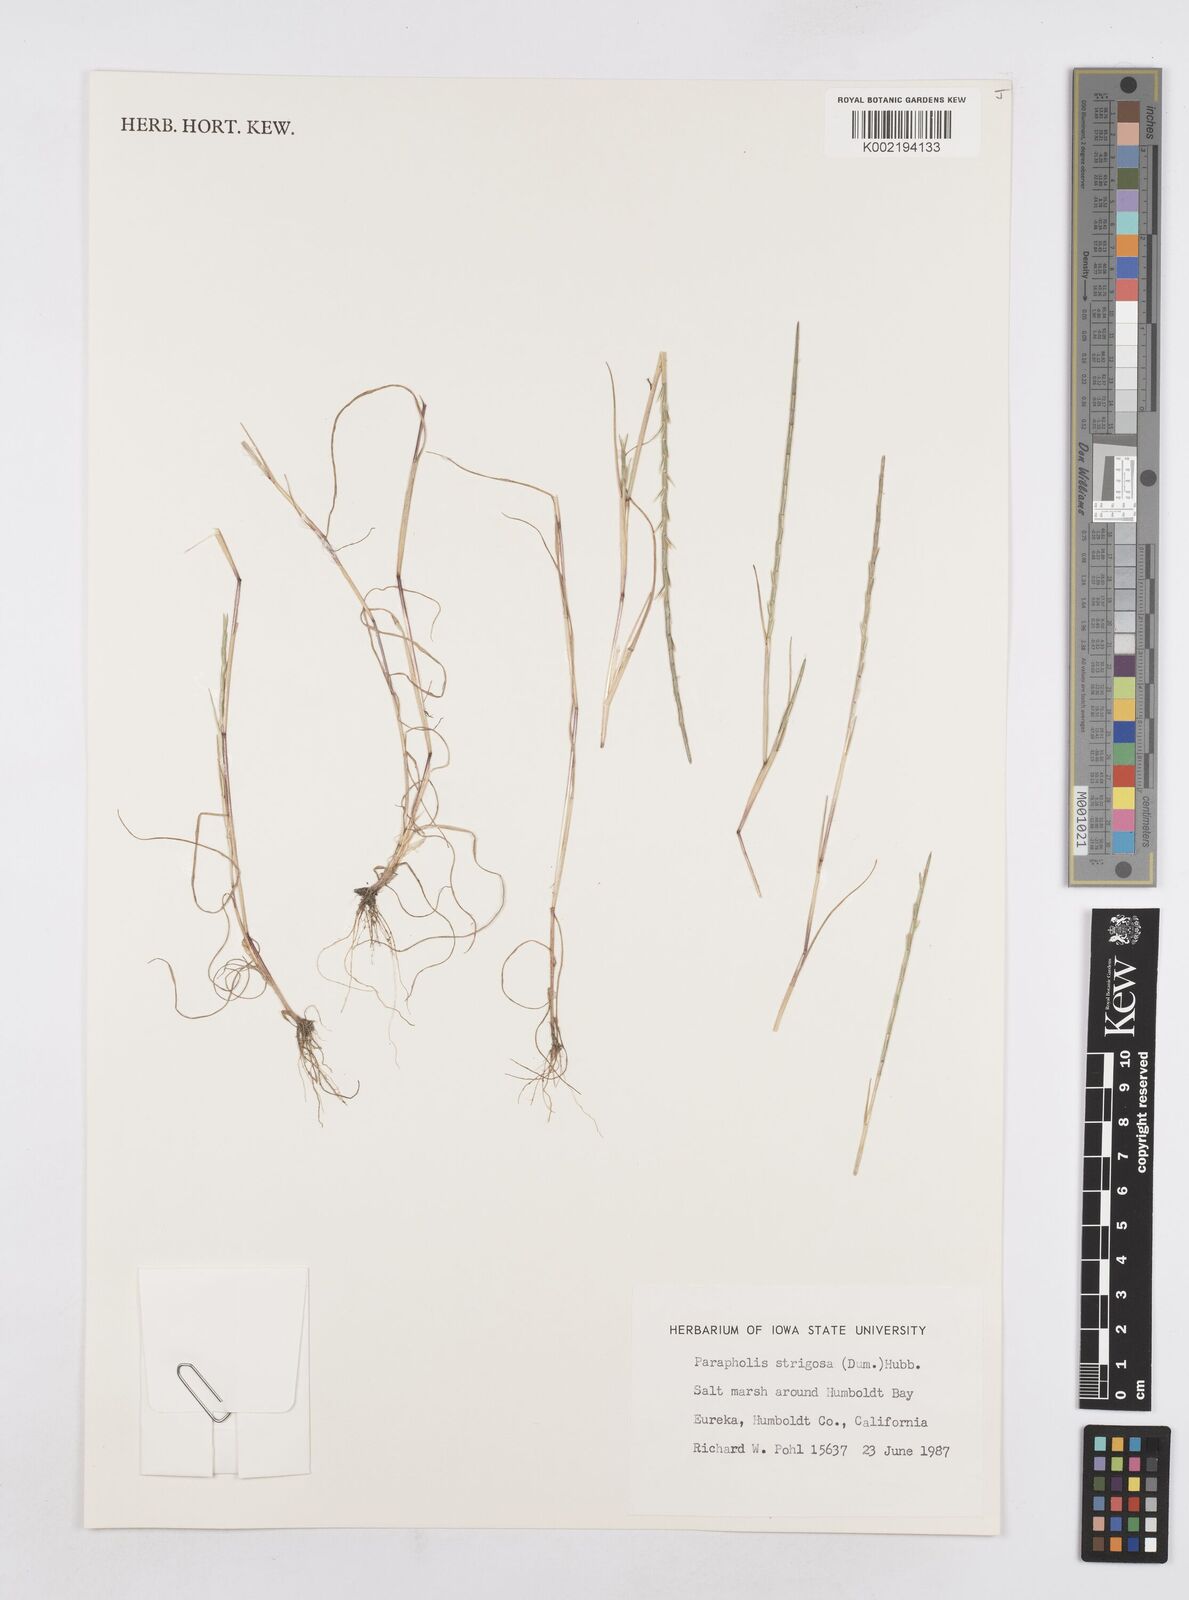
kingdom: Plantae
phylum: Tracheophyta
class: Liliopsida
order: Poales
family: Poaceae
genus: Parapholis
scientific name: Parapholis strigosa
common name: Hard-grass
